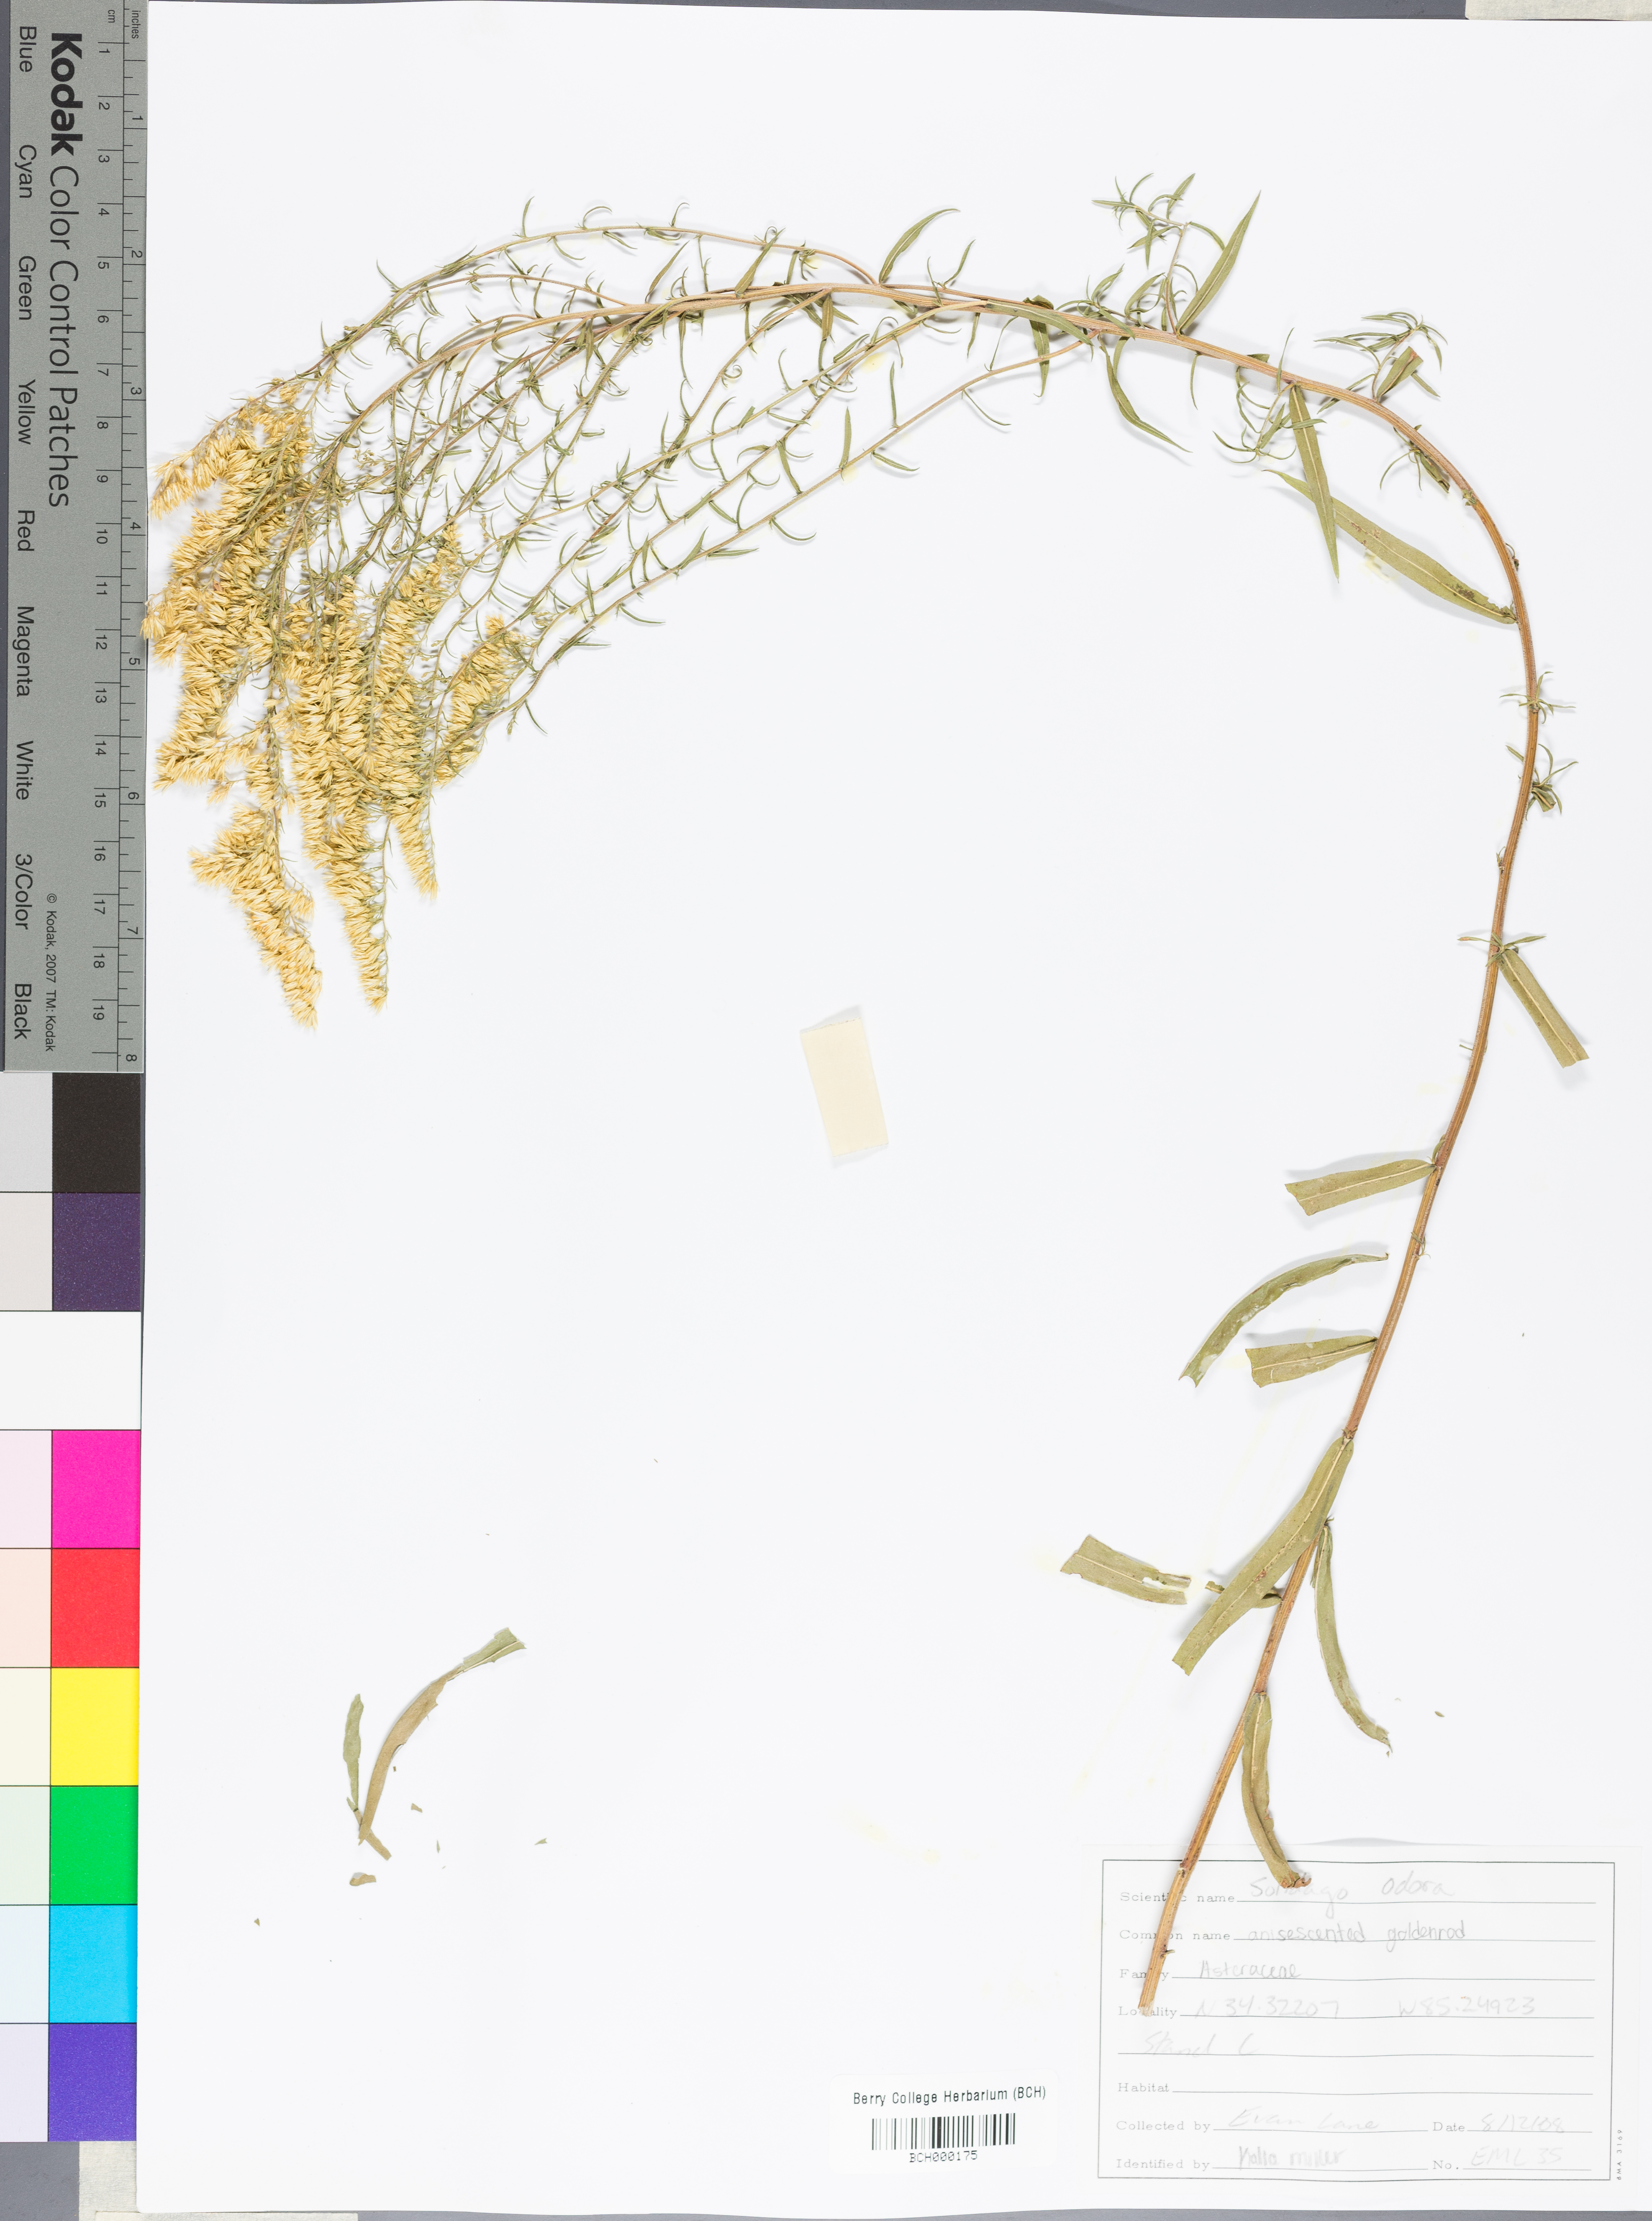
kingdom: Plantae
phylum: Tracheophyta
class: Magnoliopsida
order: Asterales
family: Asteraceae
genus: Solidago
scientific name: Solidago odora
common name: Anise-scented goldenrod
